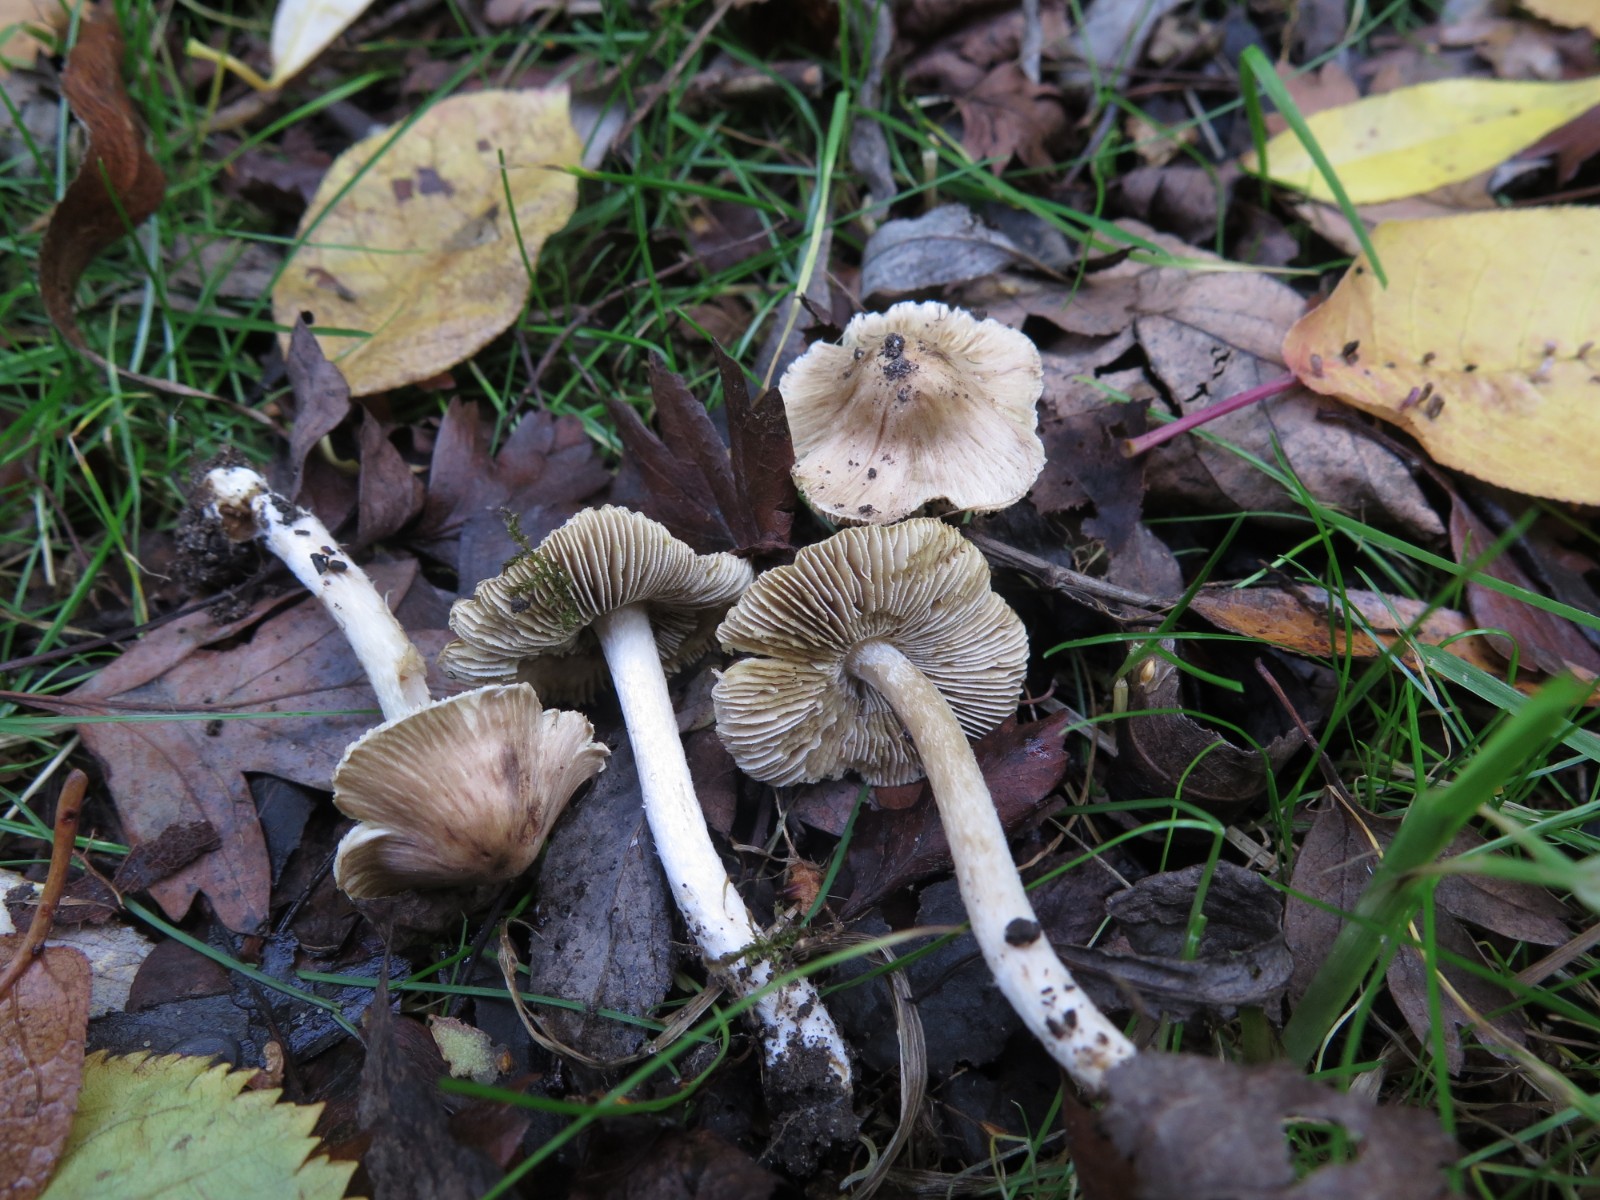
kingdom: Fungi
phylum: Basidiomycota
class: Agaricomycetes
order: Agaricales
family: Inocybaceae
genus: Pseudosperma
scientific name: Pseudosperma
